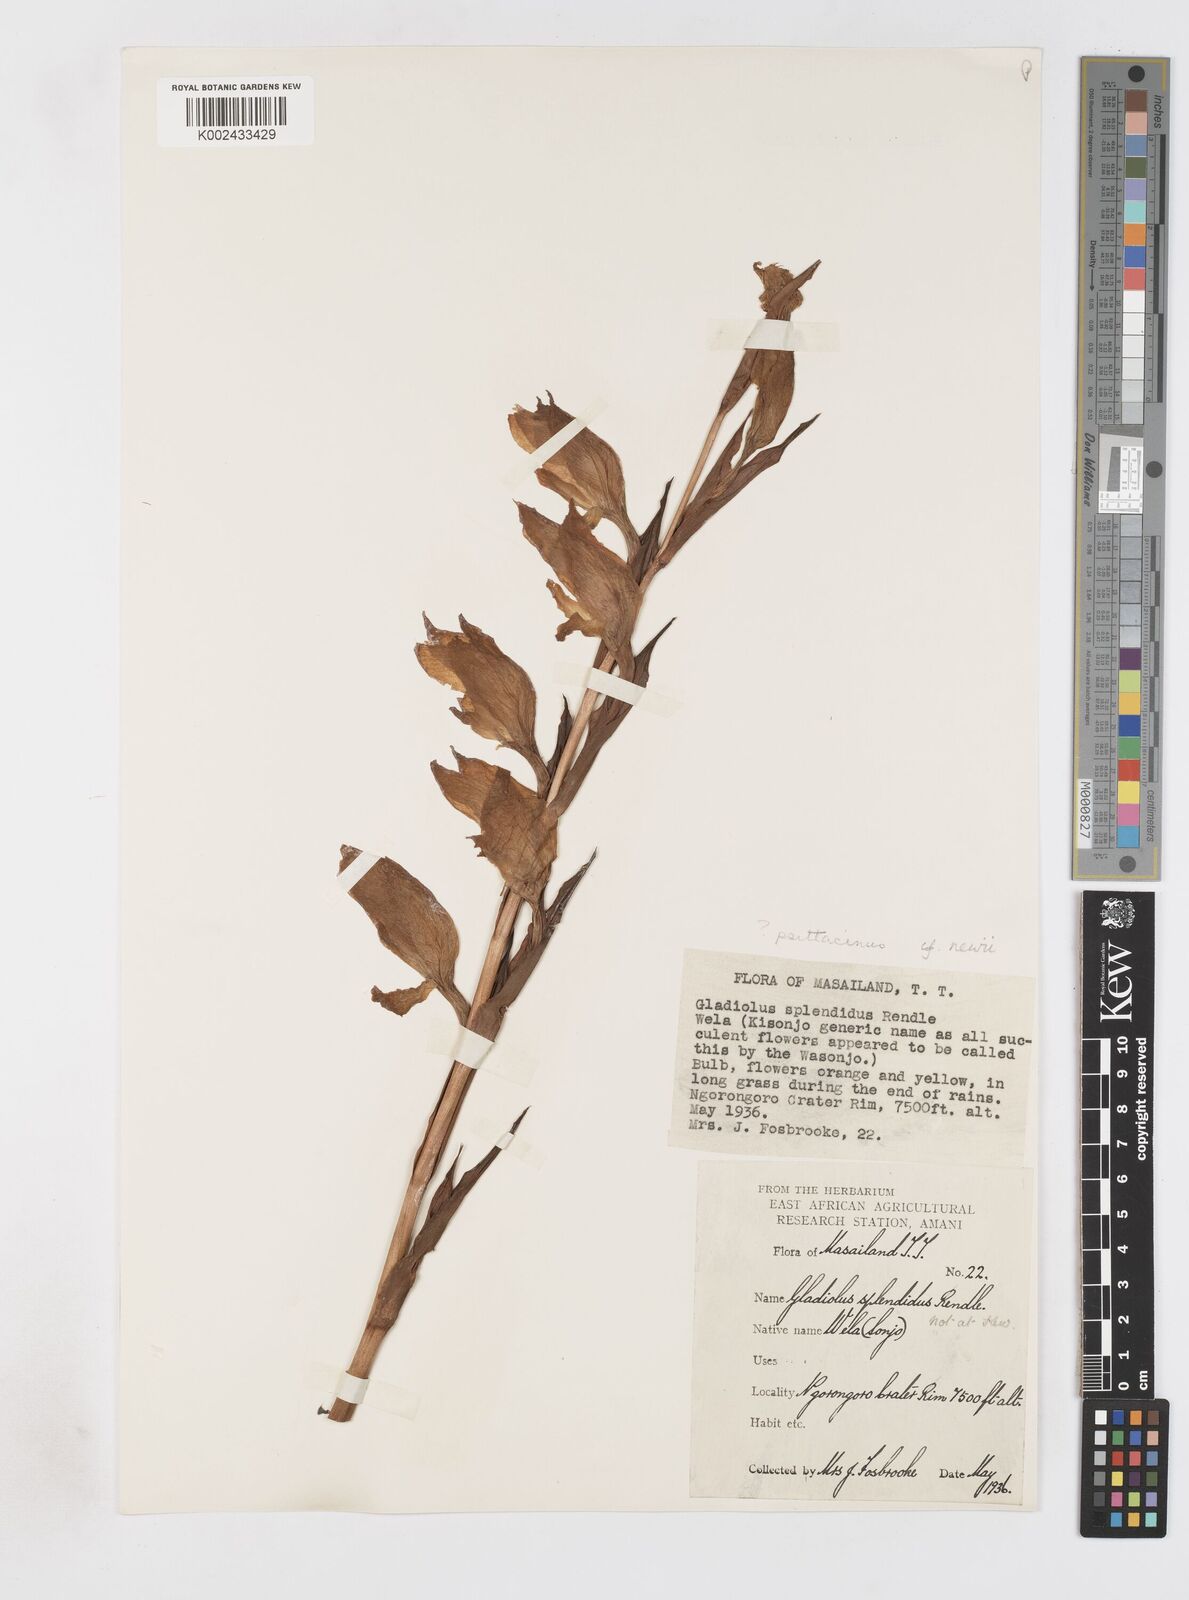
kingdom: Plantae
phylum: Tracheophyta
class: Liliopsida
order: Asparagales
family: Iridaceae
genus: Gladiolus
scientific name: Gladiolus dalenii
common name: Cornflag
